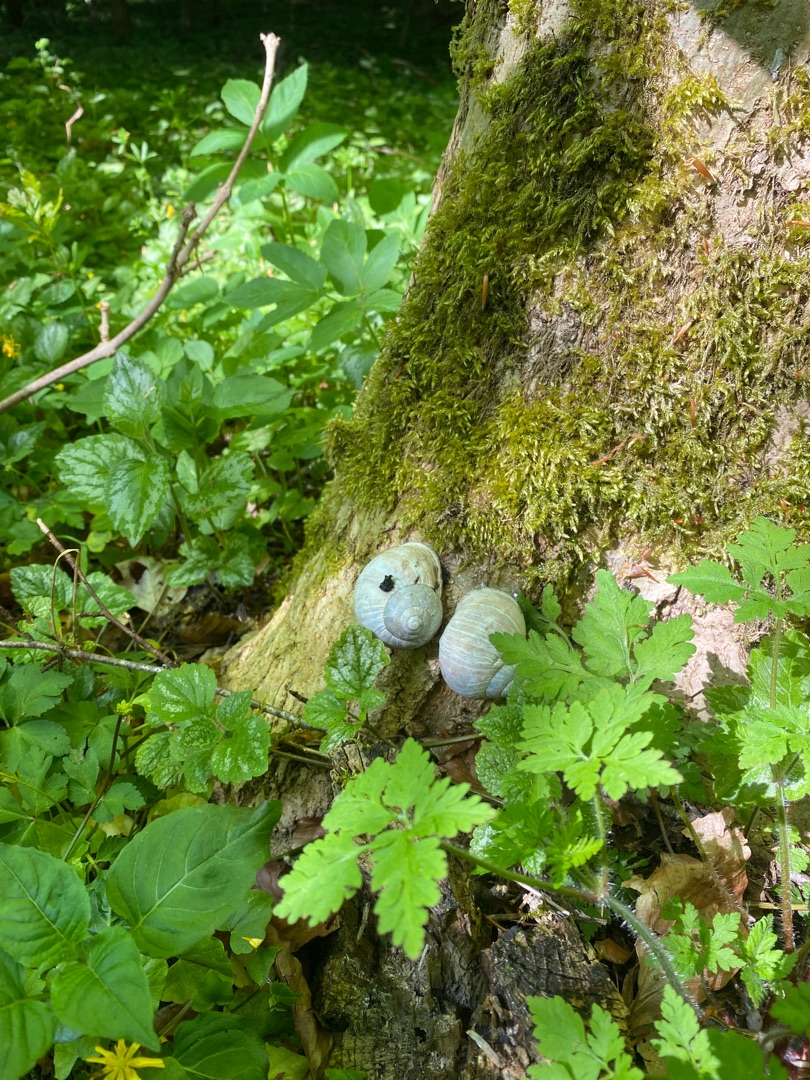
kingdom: Animalia
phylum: Mollusca
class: Gastropoda
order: Stylommatophora
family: Helicidae
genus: Helix
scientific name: Helix pomatia
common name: Vinbjergsnegl
